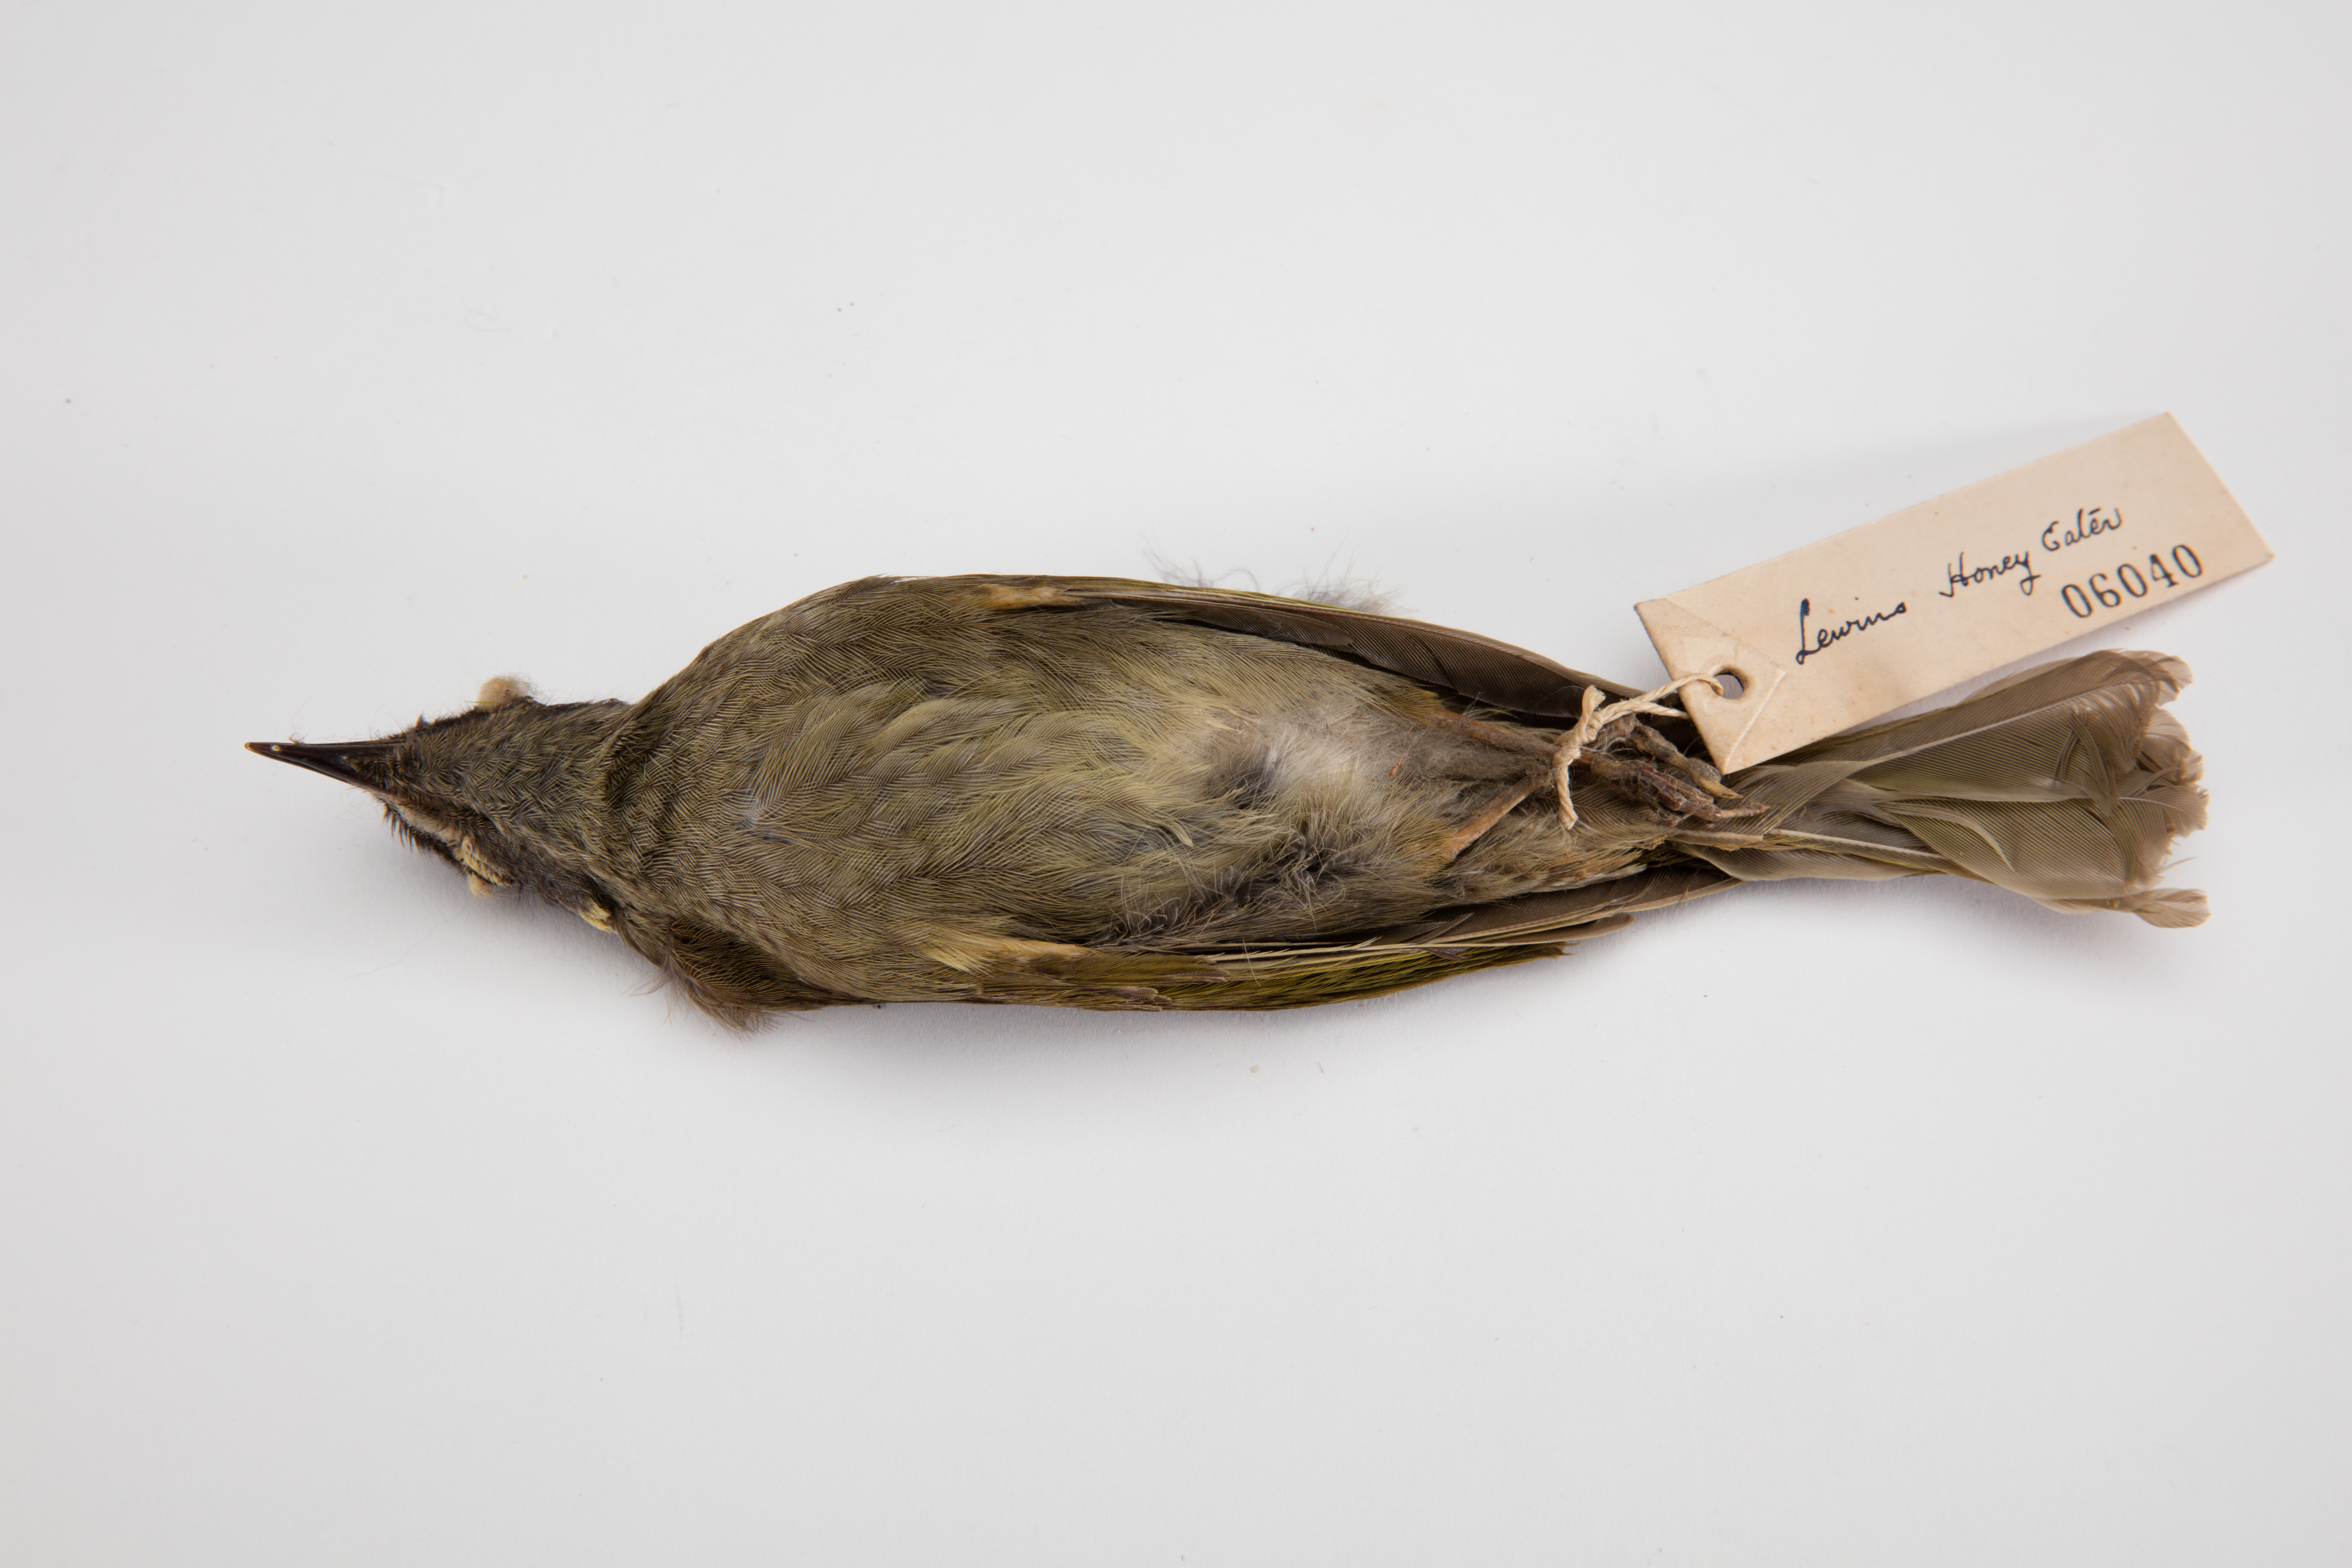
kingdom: Animalia
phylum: Chordata
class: Aves
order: Passeriformes
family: Meliphagidae
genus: Meliphaga
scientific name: Meliphaga lewinii
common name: Lewin's honeyeater
